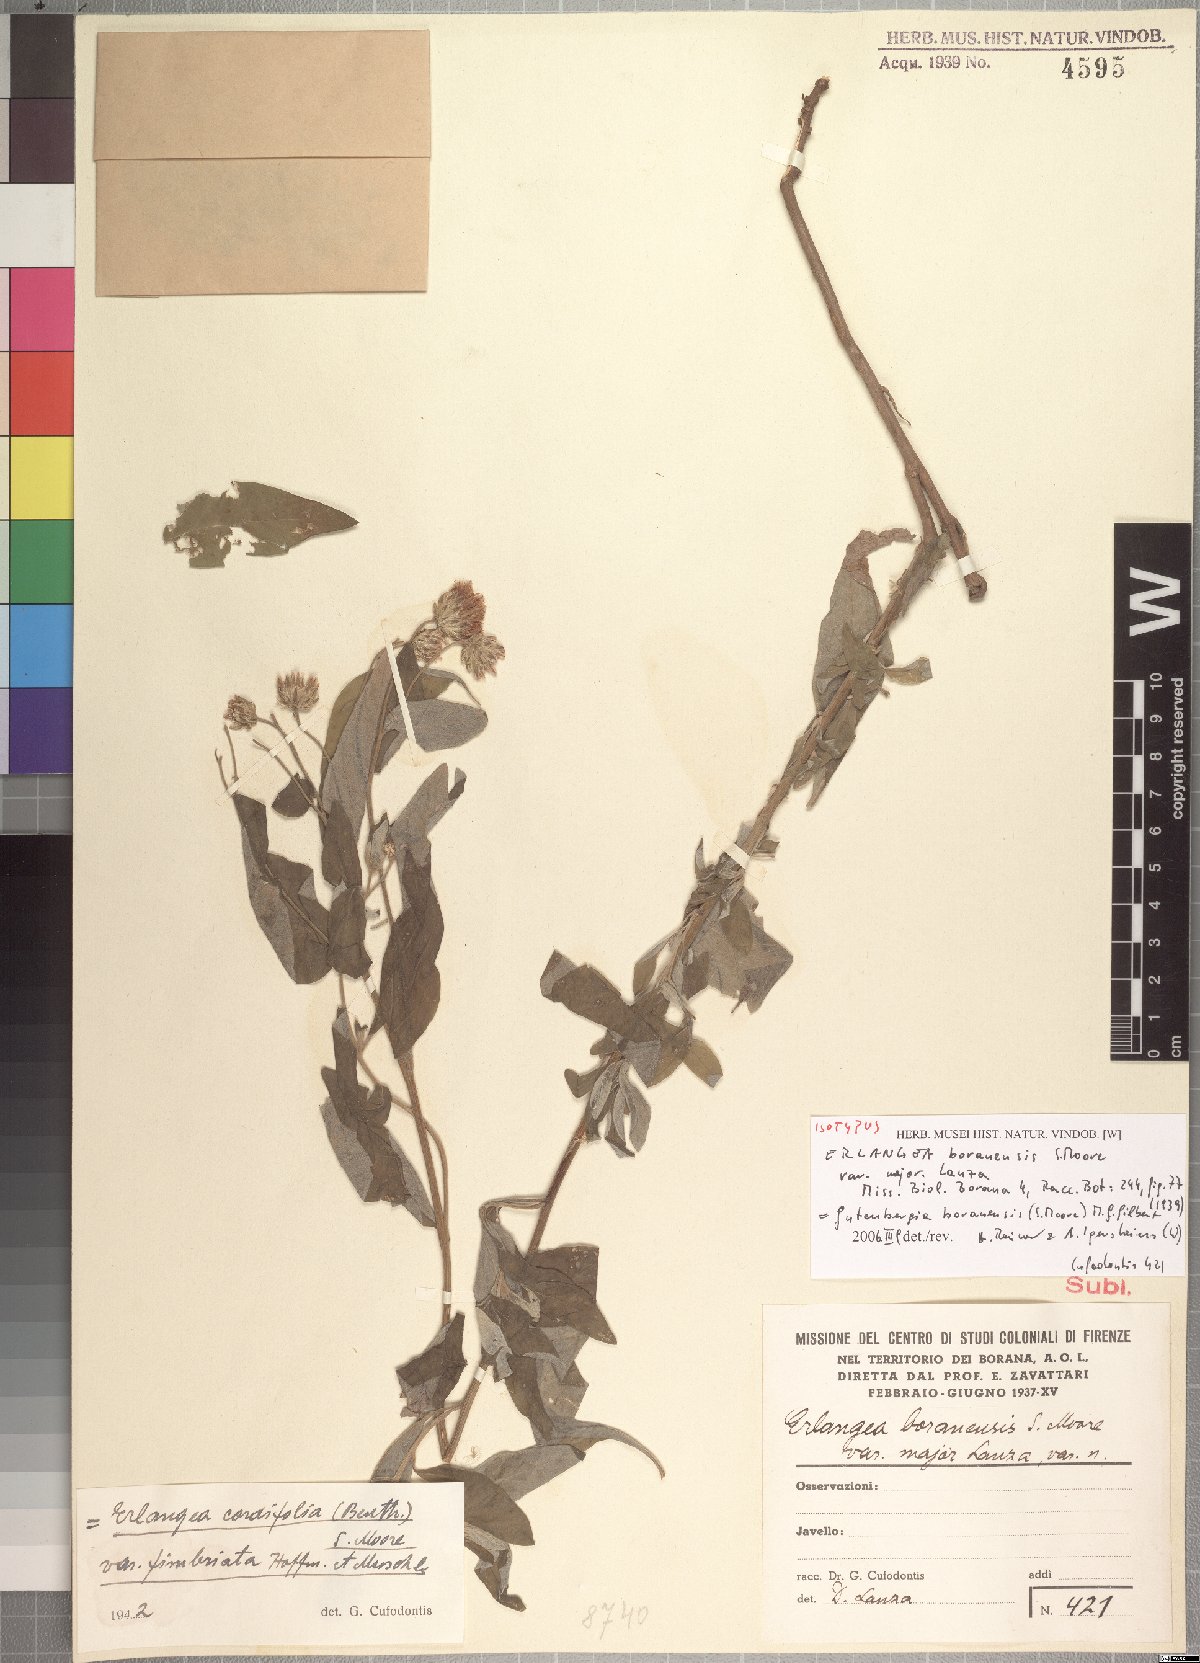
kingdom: Plantae
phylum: Tracheophyta
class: Magnoliopsida
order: Asterales
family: Asteraceae
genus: Gutenbergia
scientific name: Gutenbergia boranensis
